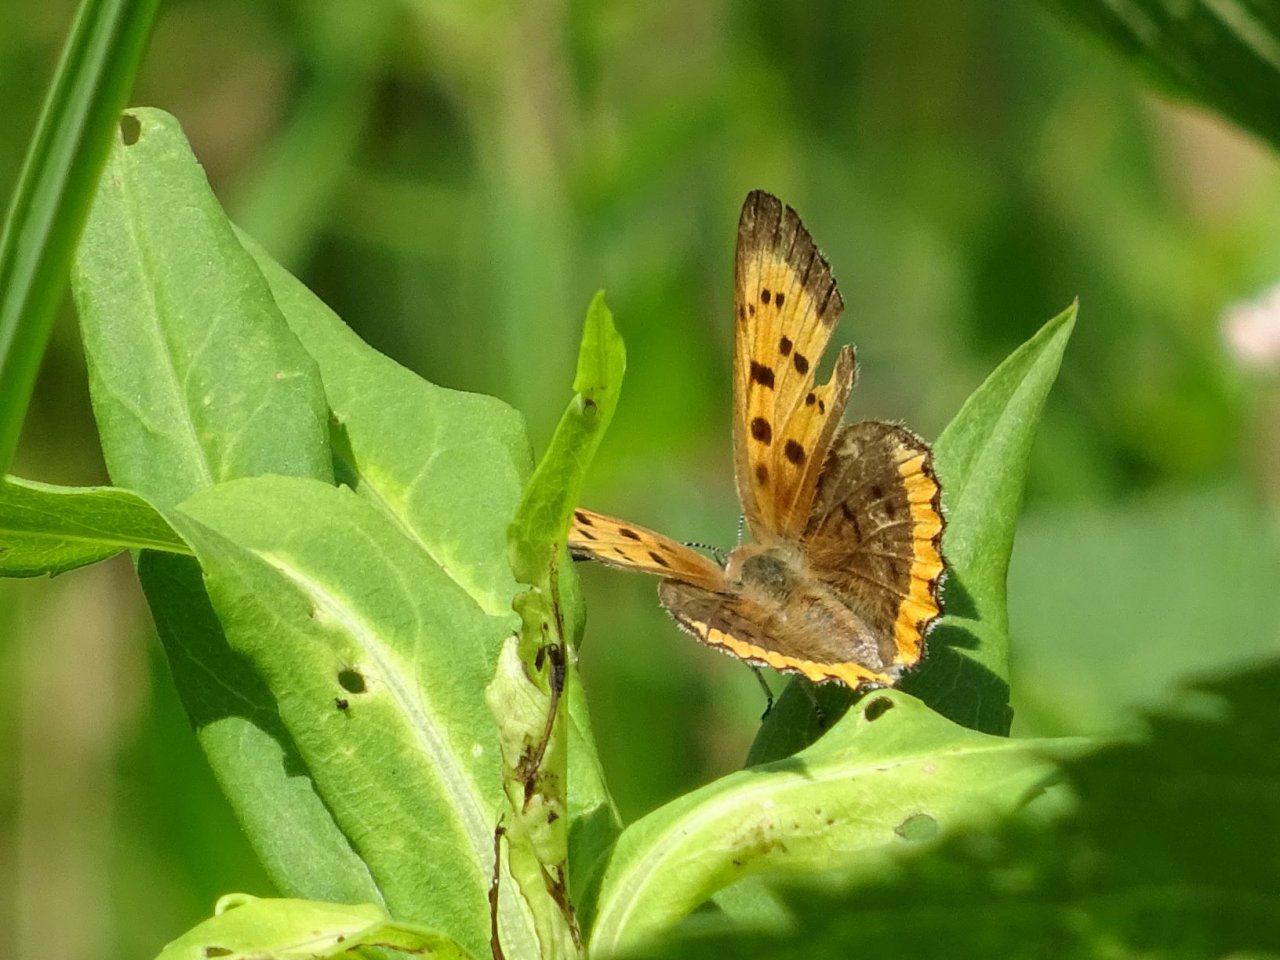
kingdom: Animalia
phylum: Arthropoda
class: Insecta
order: Lepidoptera
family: Sesiidae
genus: Sesia
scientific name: Sesia Lycaena hyllus
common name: Bronze Copper
